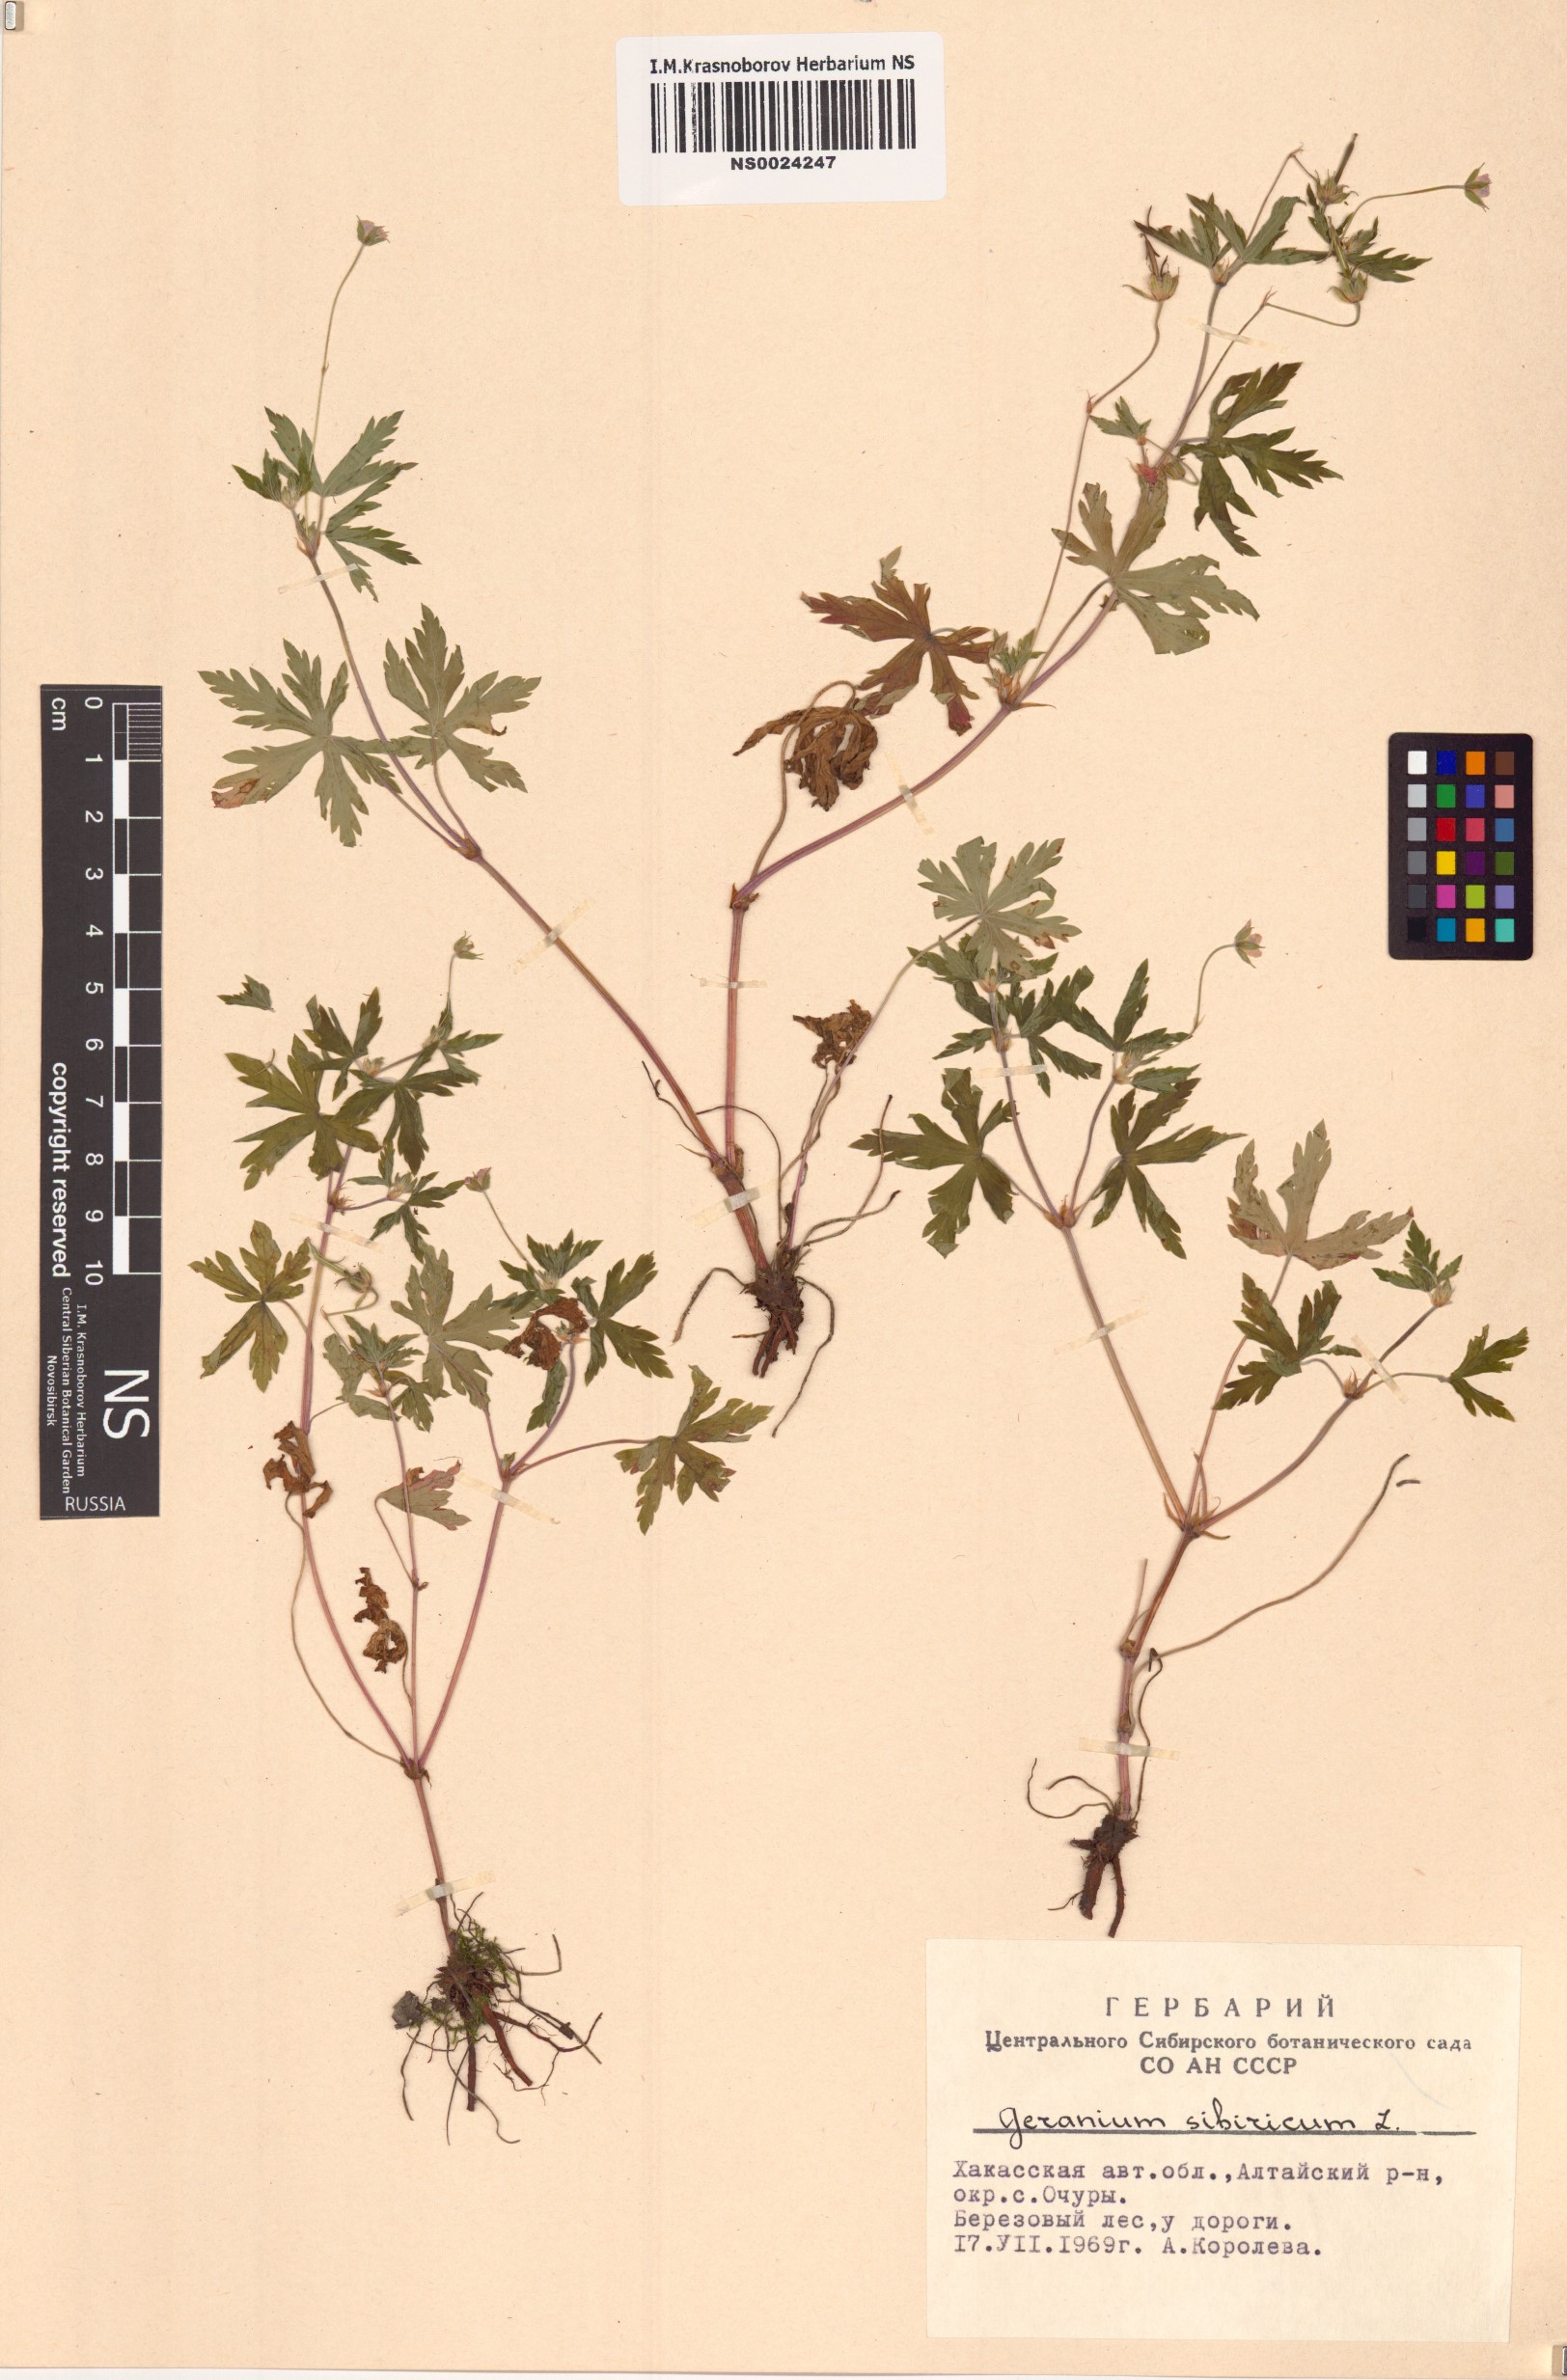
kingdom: Plantae
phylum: Tracheophyta
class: Magnoliopsida
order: Geraniales
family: Geraniaceae
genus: Geranium
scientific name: Geranium sibiricum
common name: Siberian crane's-bill
